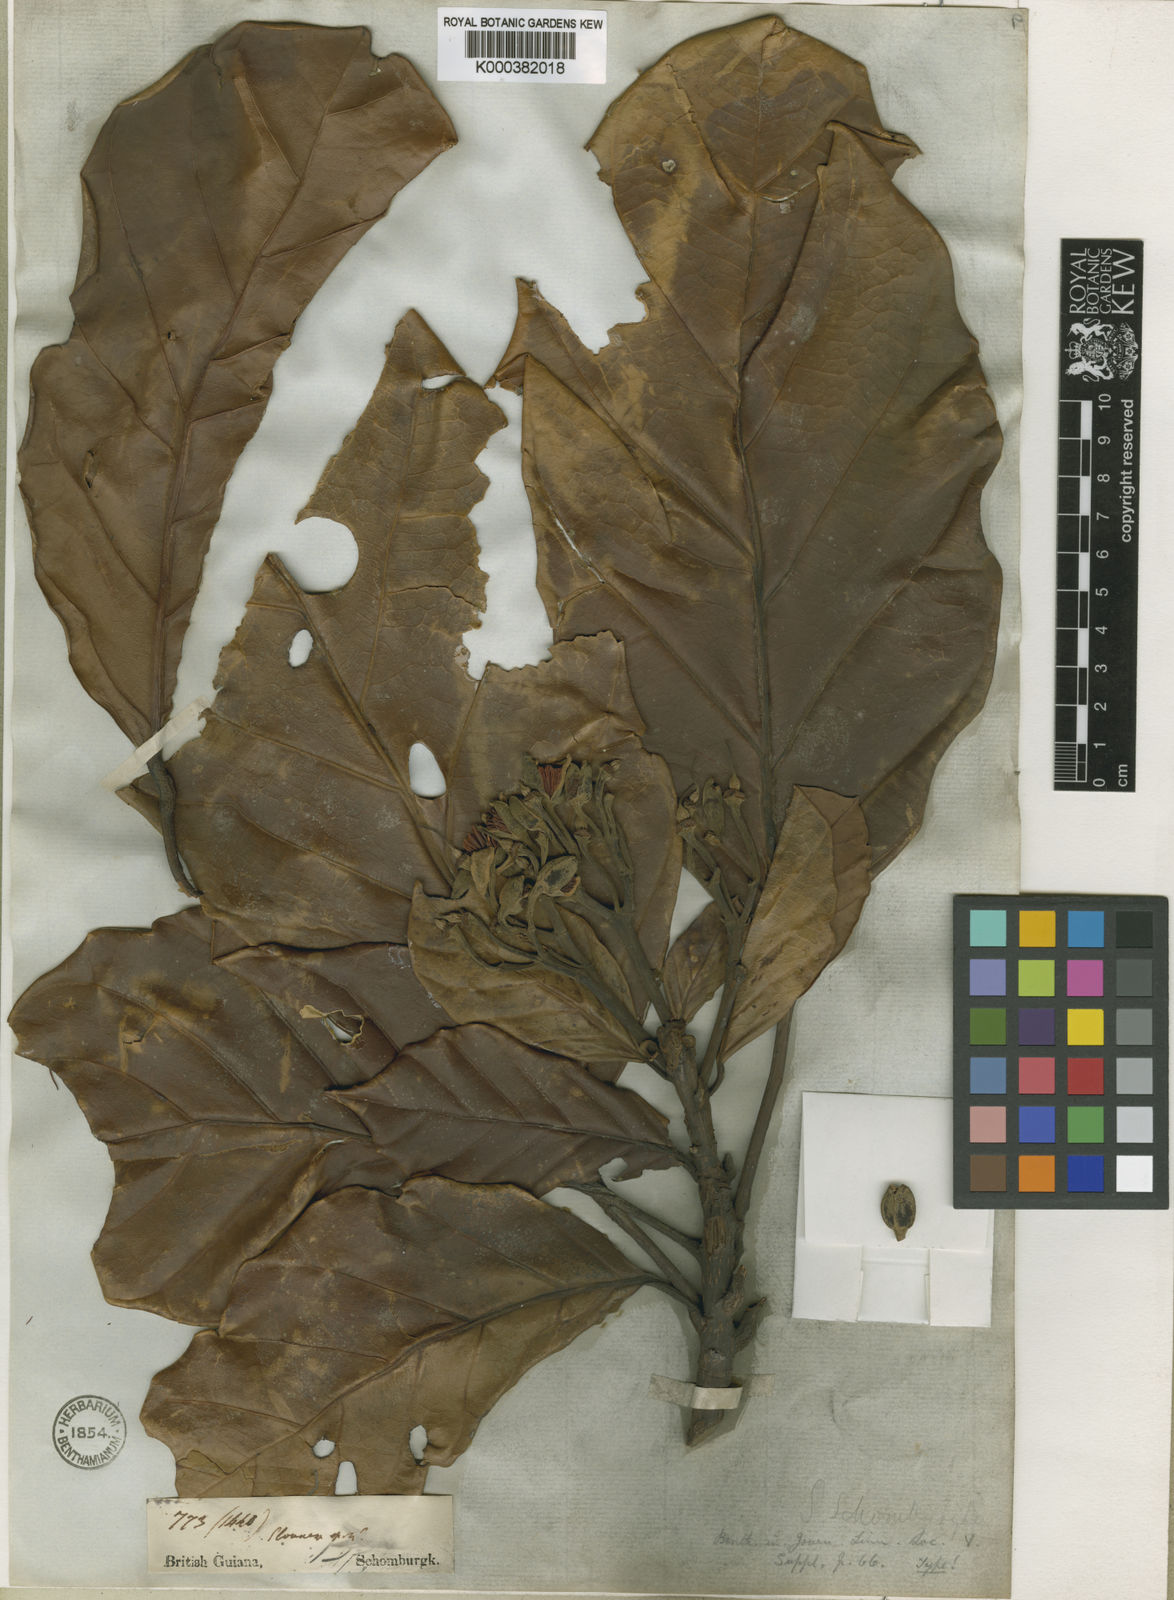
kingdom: Plantae
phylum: Tracheophyta
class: Magnoliopsida
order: Oxalidales
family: Elaeocarpaceae
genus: Sloanea
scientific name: Sloanea schomburgkii
